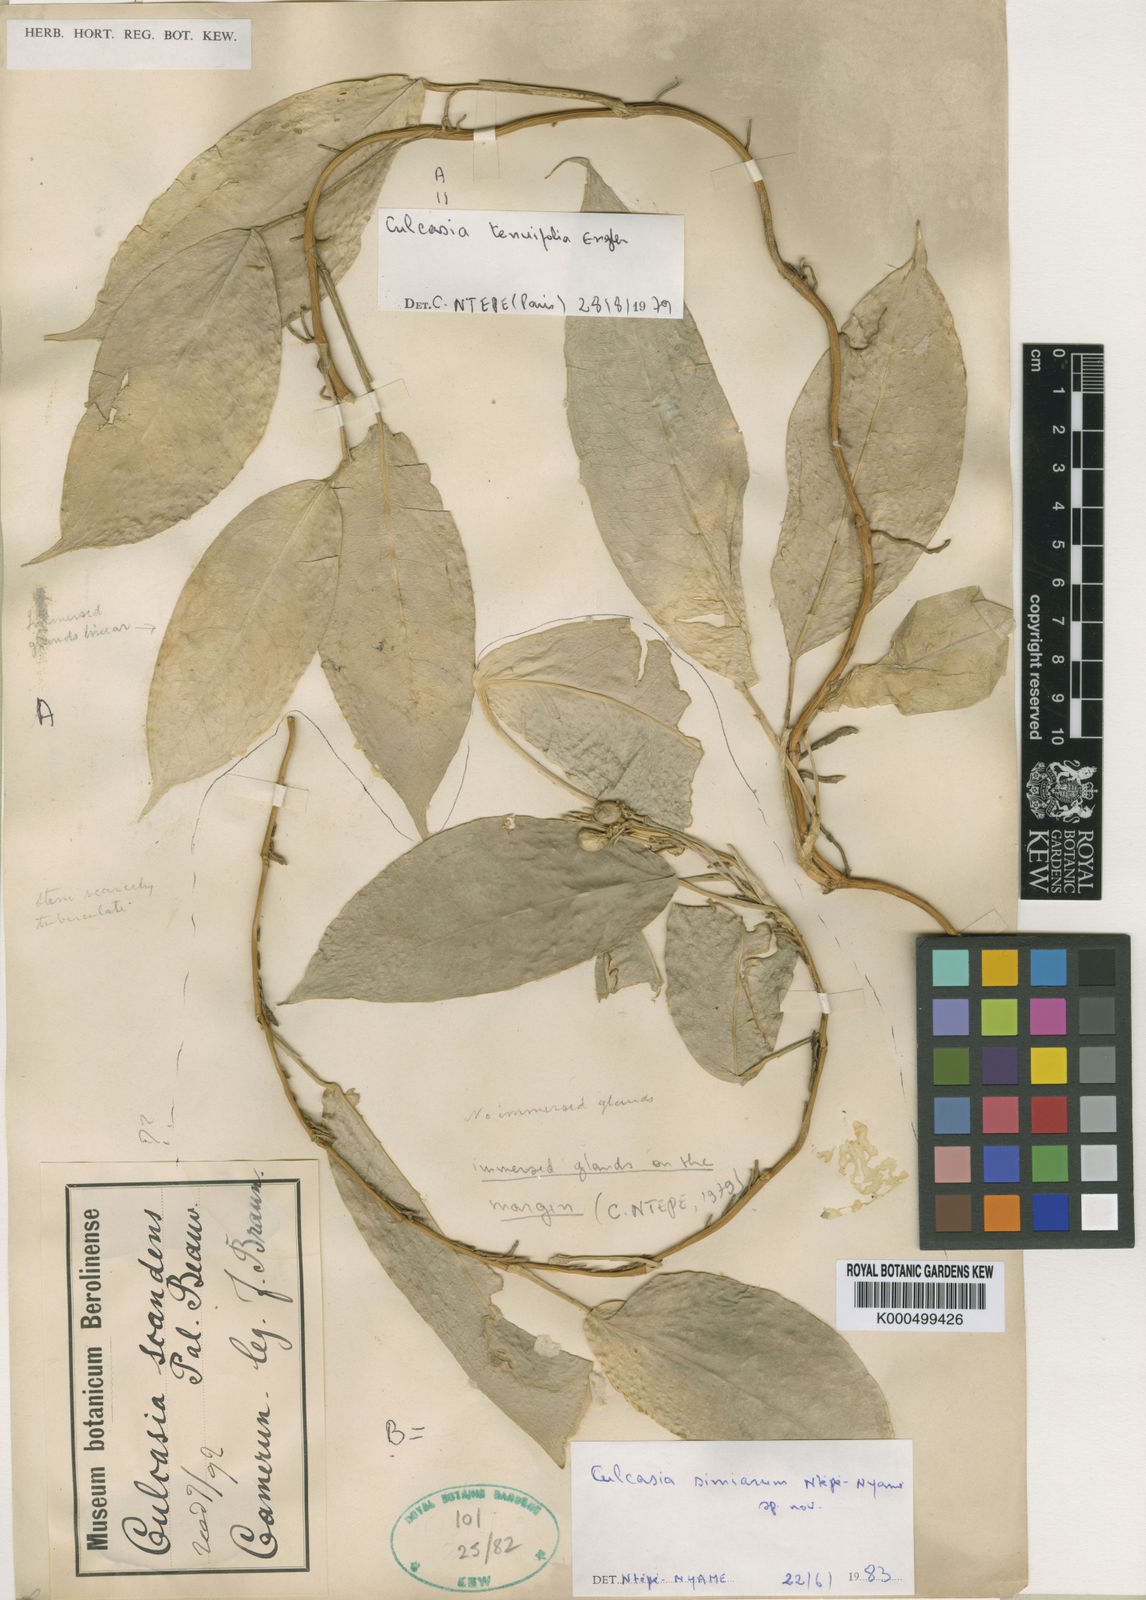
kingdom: Plantae
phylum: Tracheophyta
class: Liliopsida
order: Alismatales
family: Araceae
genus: Culcasia
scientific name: Culcasia simiarum
